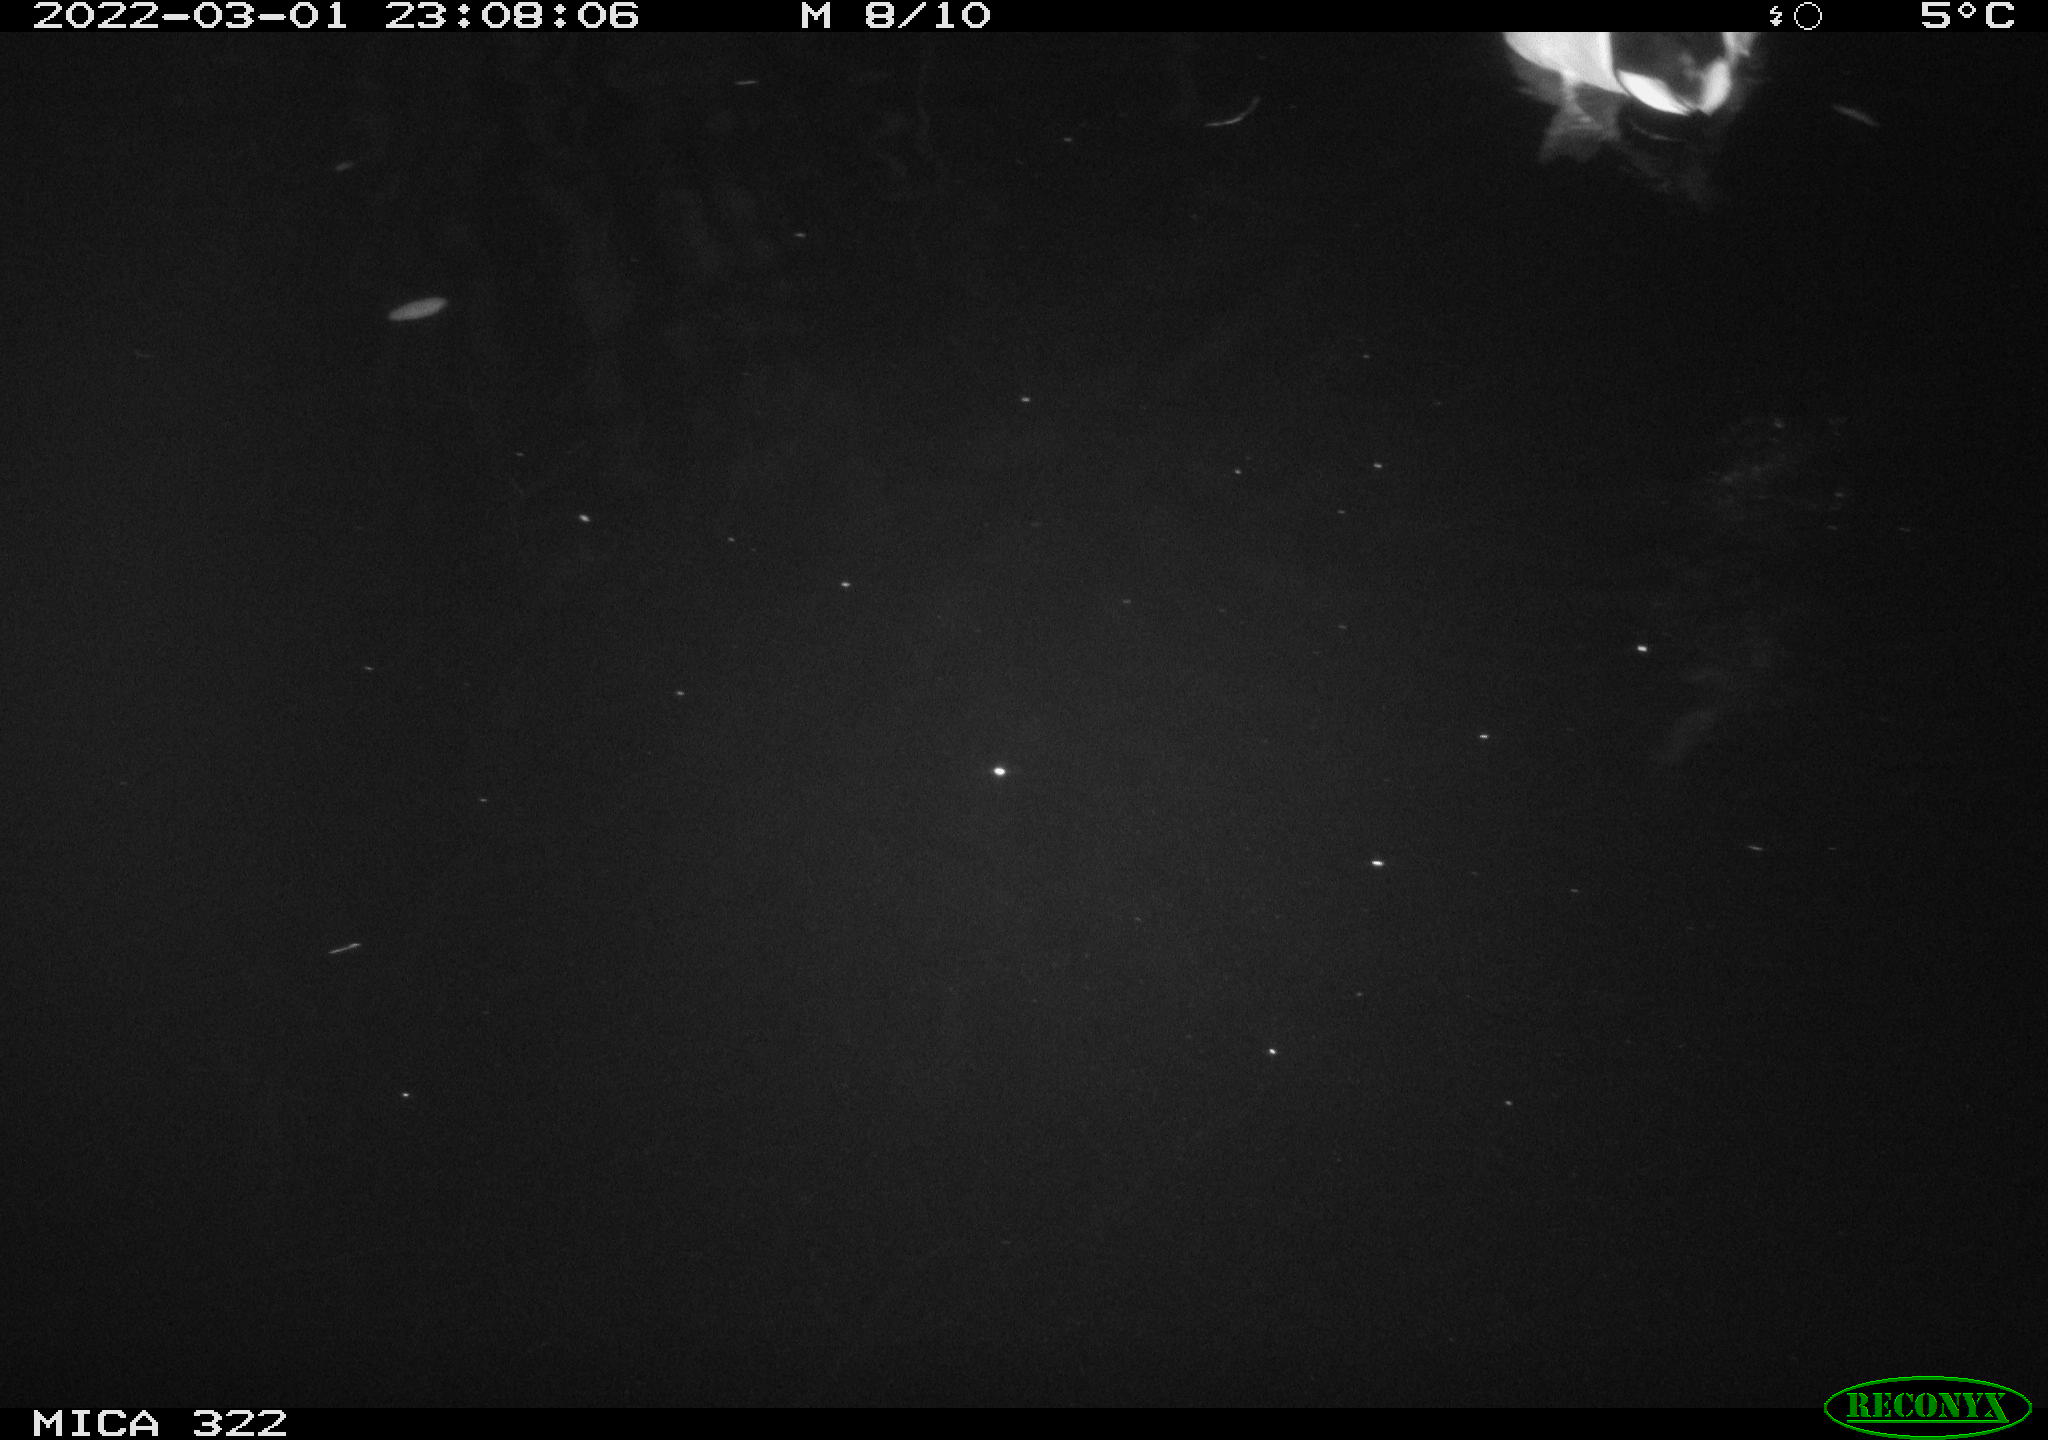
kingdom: Animalia
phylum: Chordata
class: Aves
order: Anseriformes
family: Anatidae
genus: Anas
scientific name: Anas platyrhynchos
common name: Mallard
